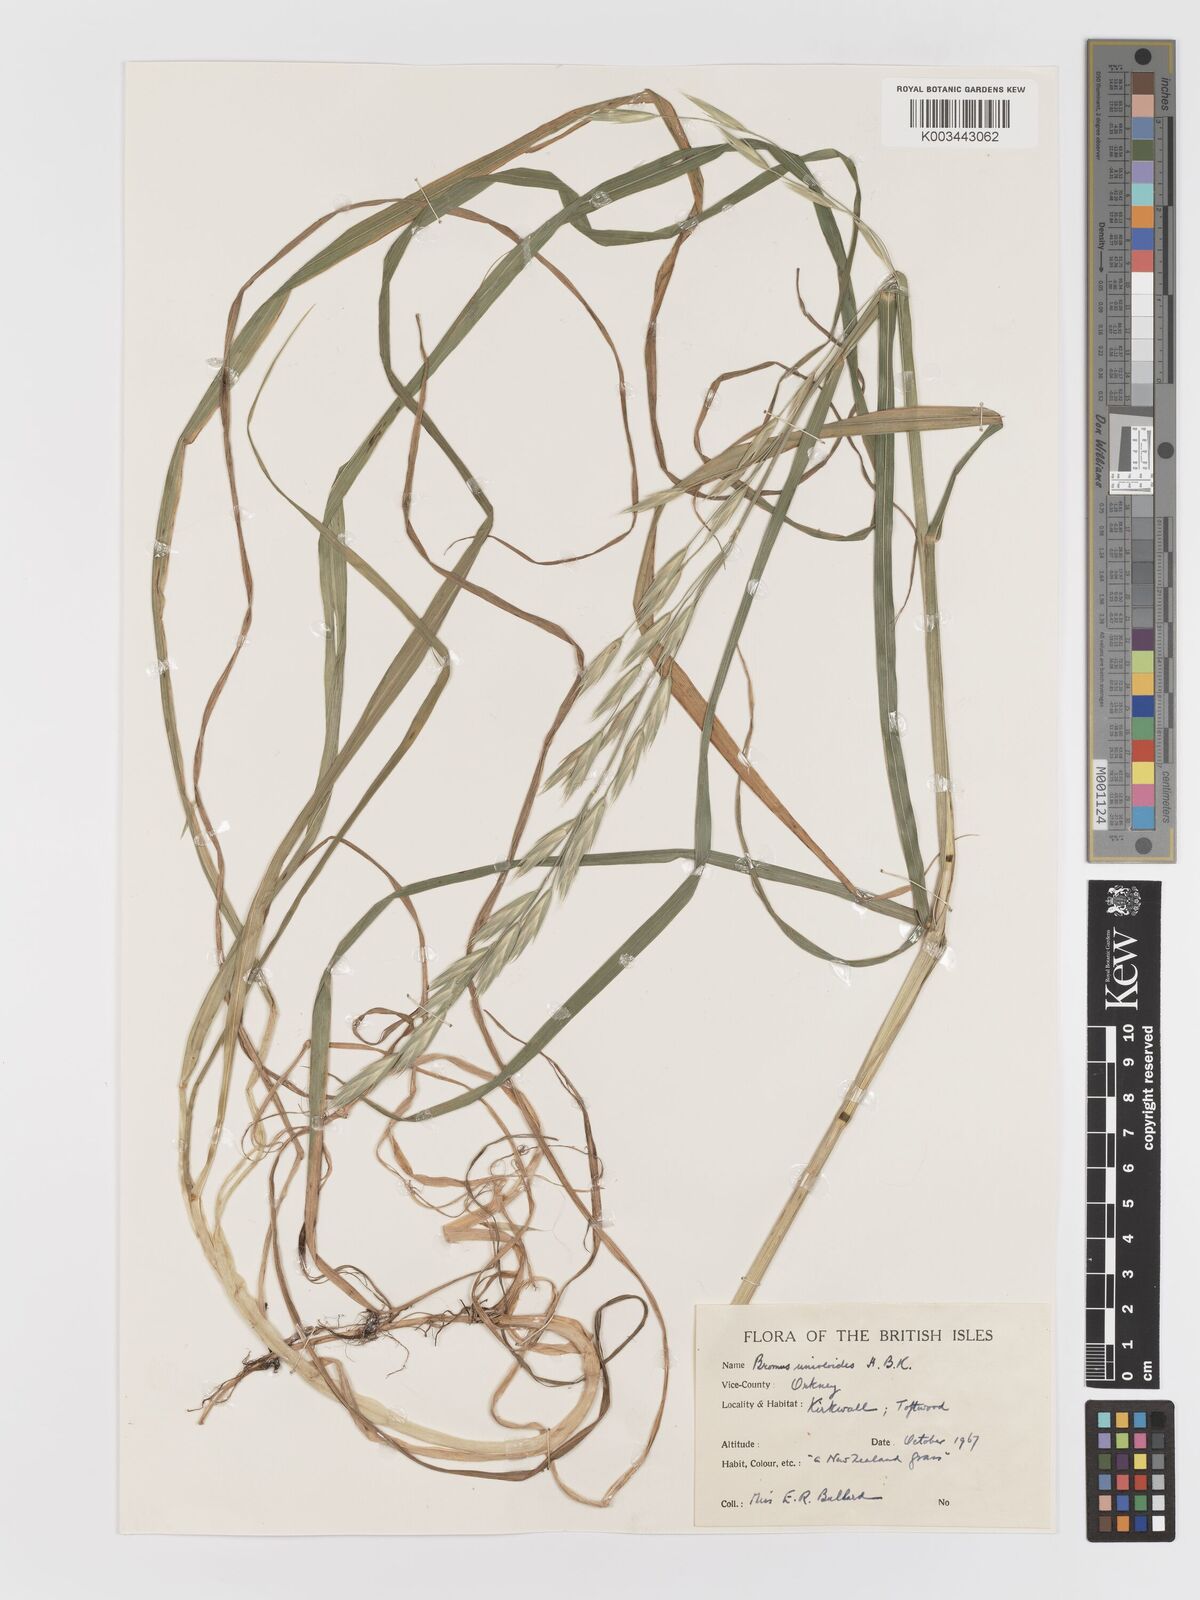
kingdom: Plantae
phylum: Tracheophyta
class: Liliopsida
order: Poales
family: Poaceae
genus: Bromus
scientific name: Bromus catharticus
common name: Rescuegrass
